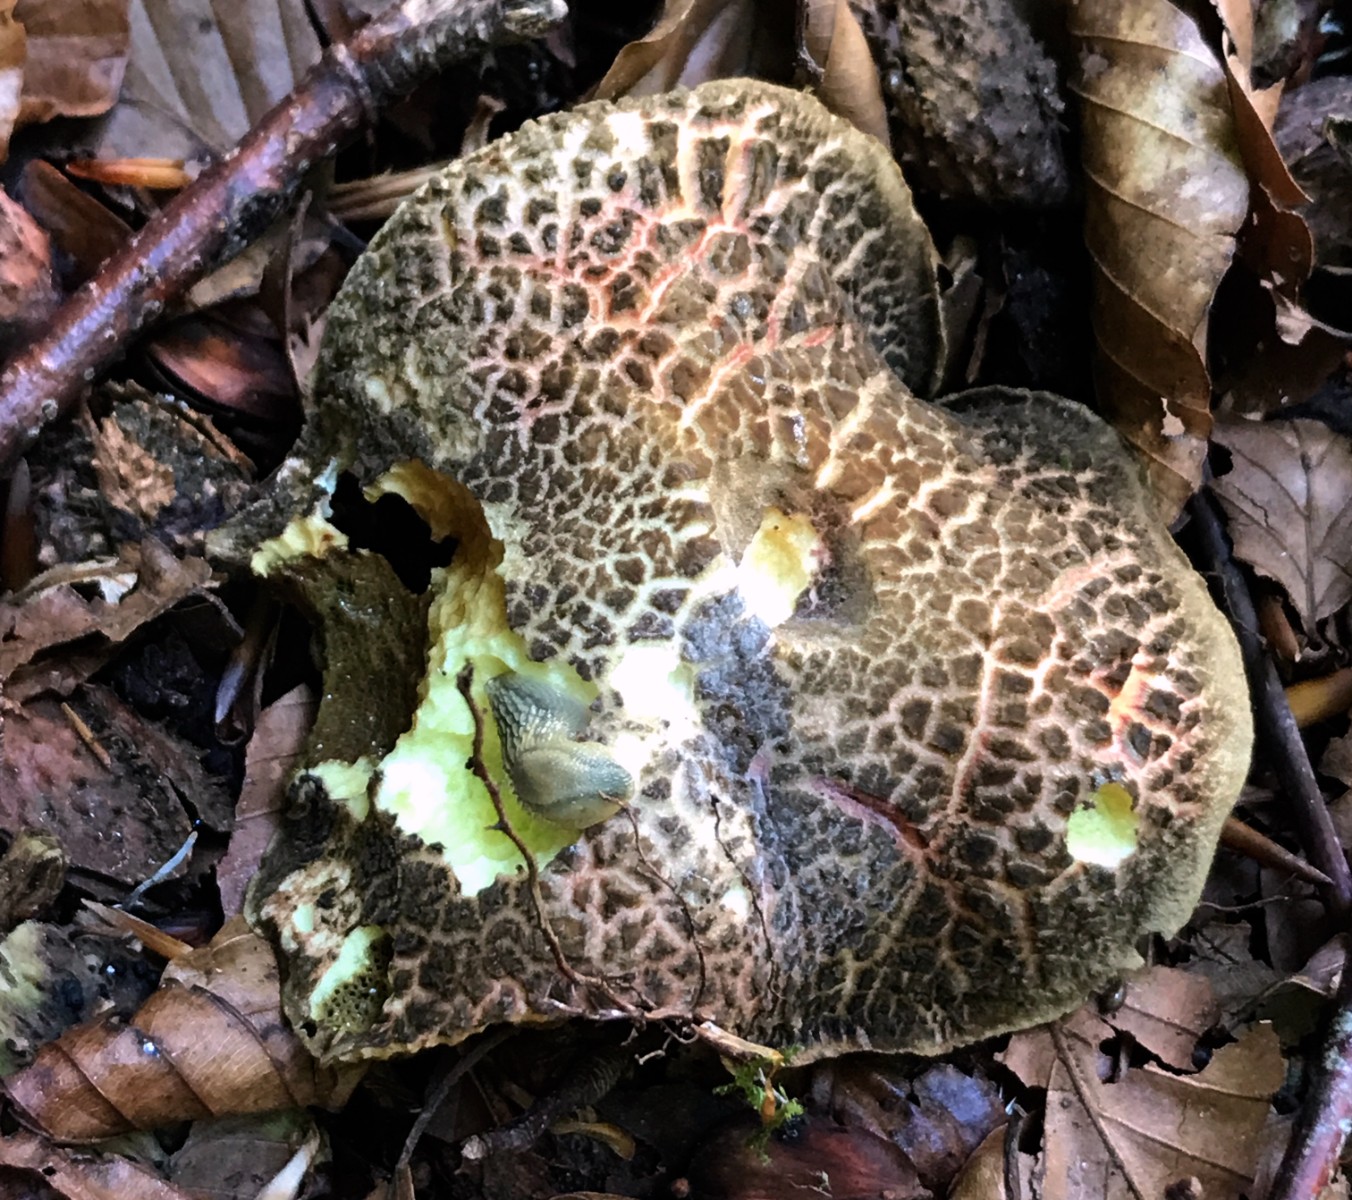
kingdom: Fungi
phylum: Basidiomycota
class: Agaricomycetes
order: Boletales
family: Boletaceae
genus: Xerocomellus
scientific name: Xerocomellus chrysenteron
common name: rødsprukken rørhat
